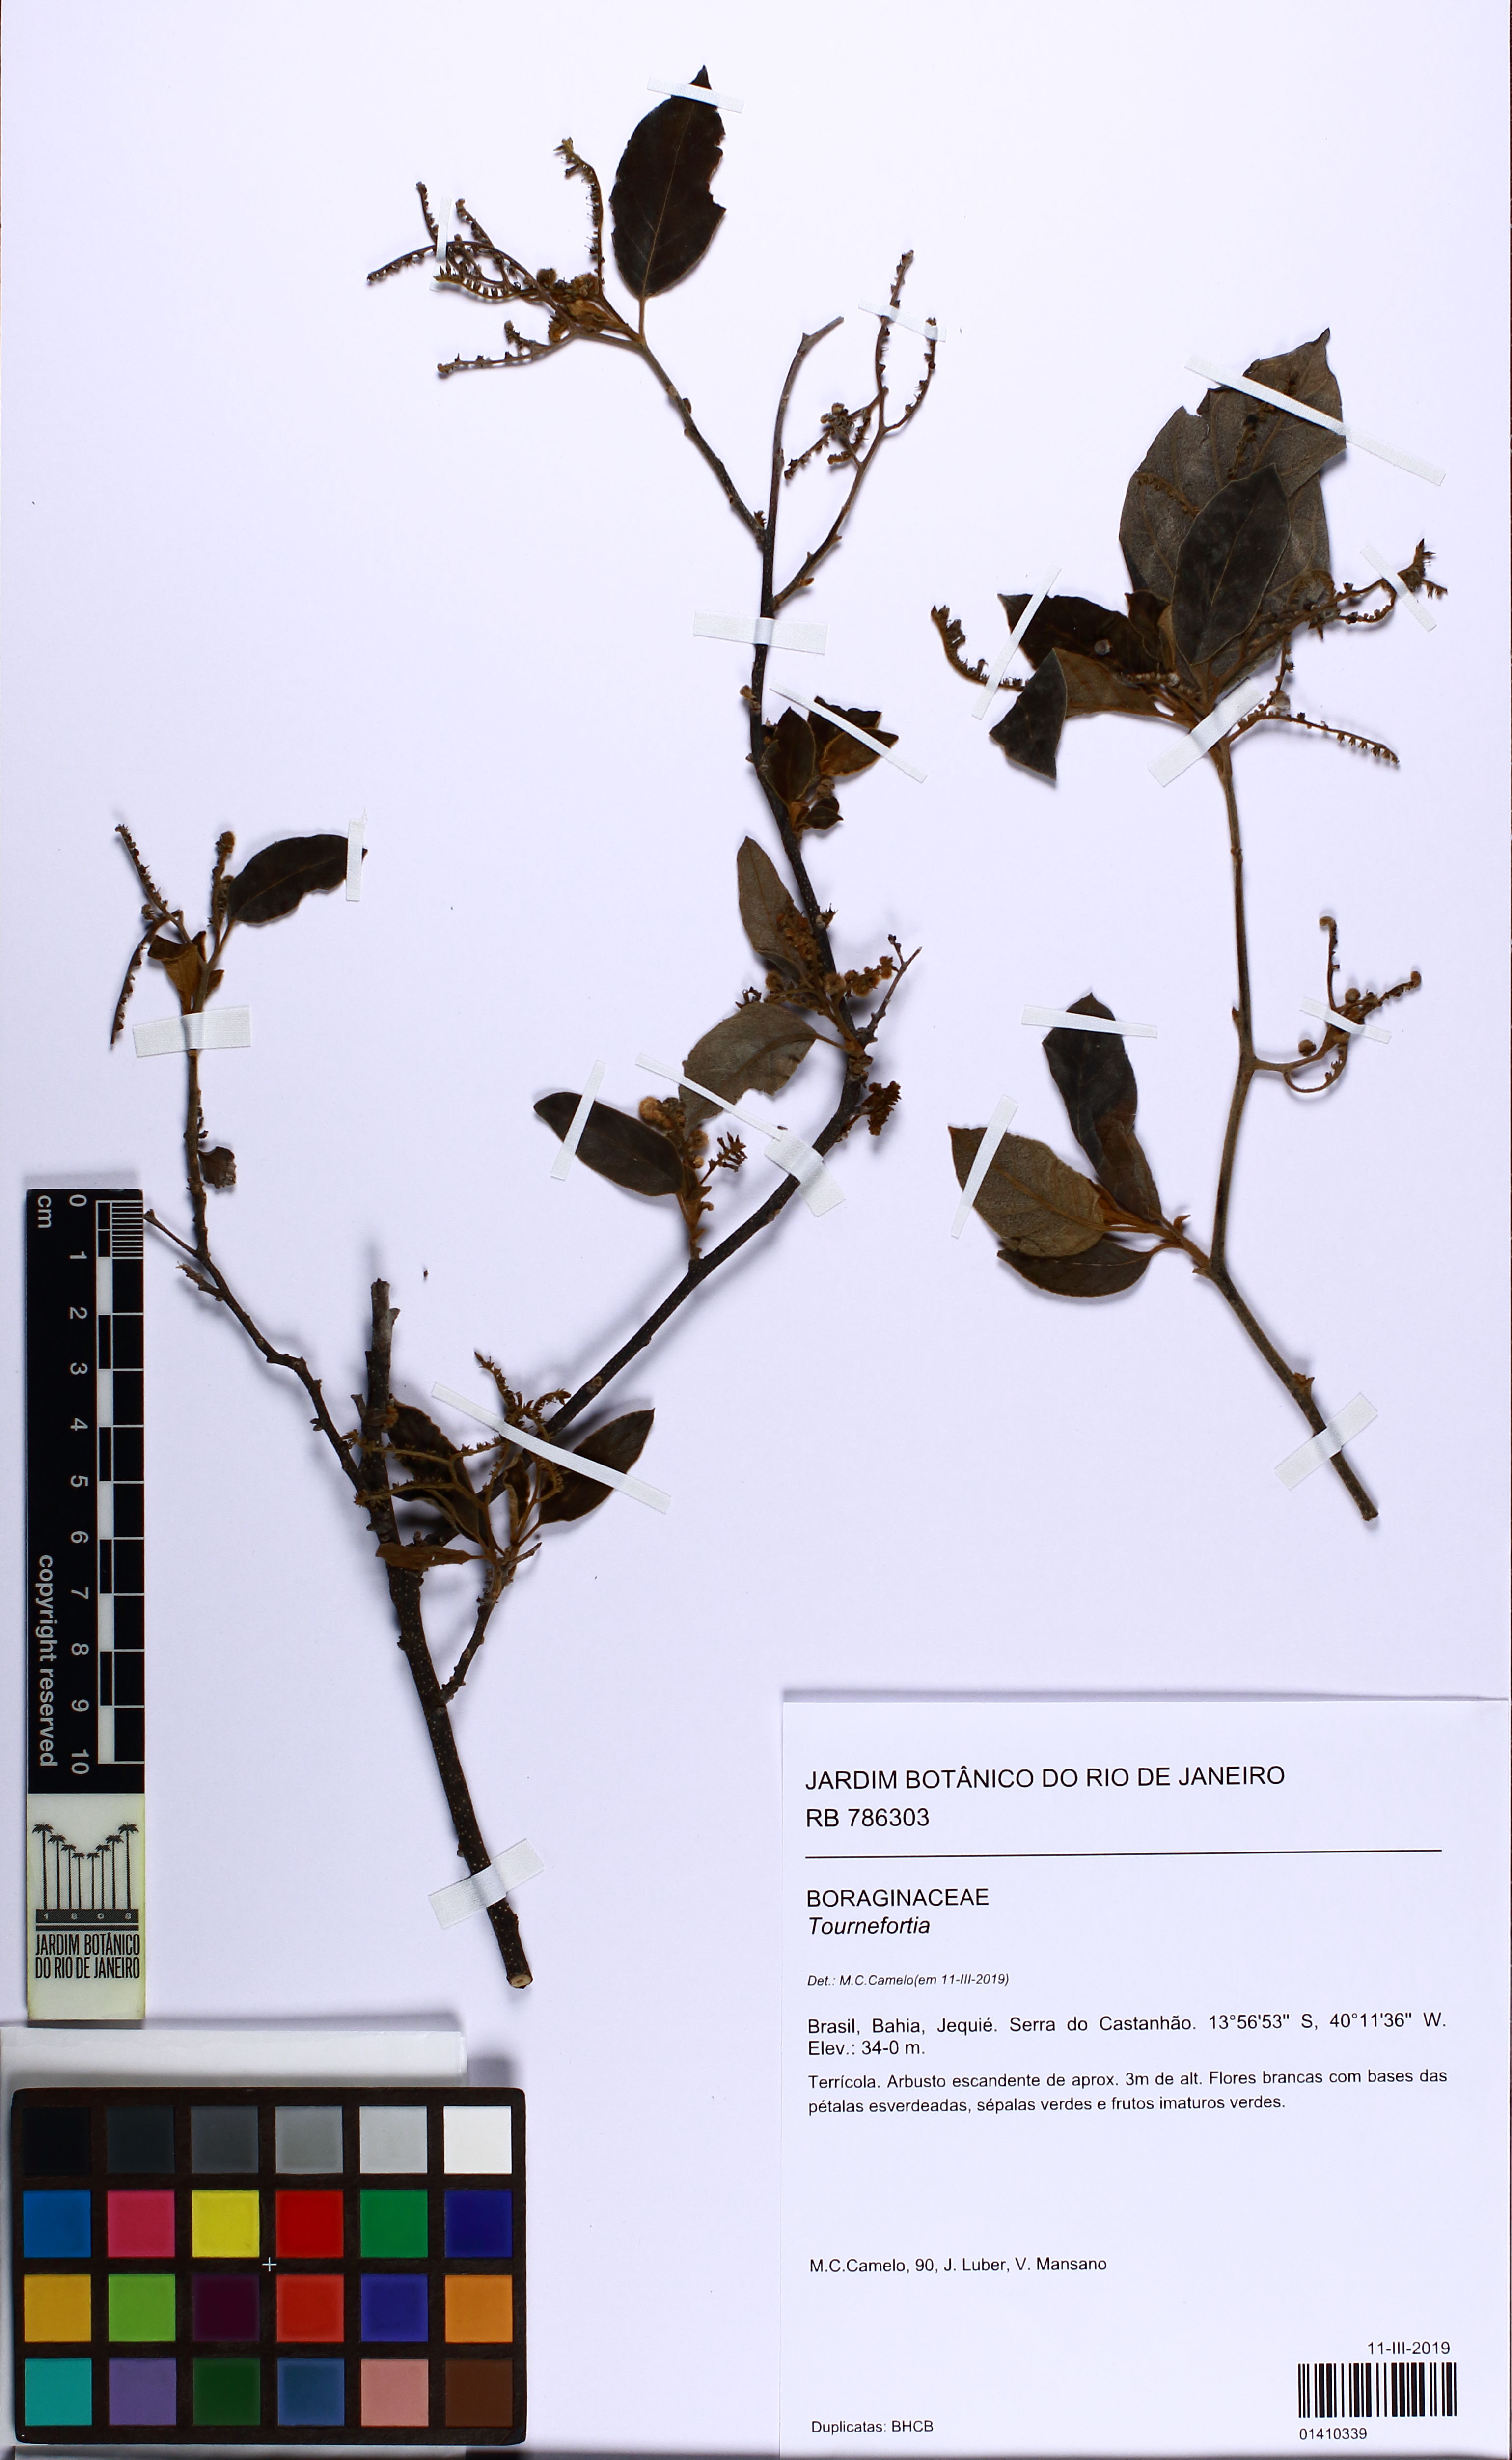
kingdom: Plantae
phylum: Tracheophyta
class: Magnoliopsida
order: Boraginales
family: Heliotropiaceae
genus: Myriopus
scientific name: Myriopus membranaceus
